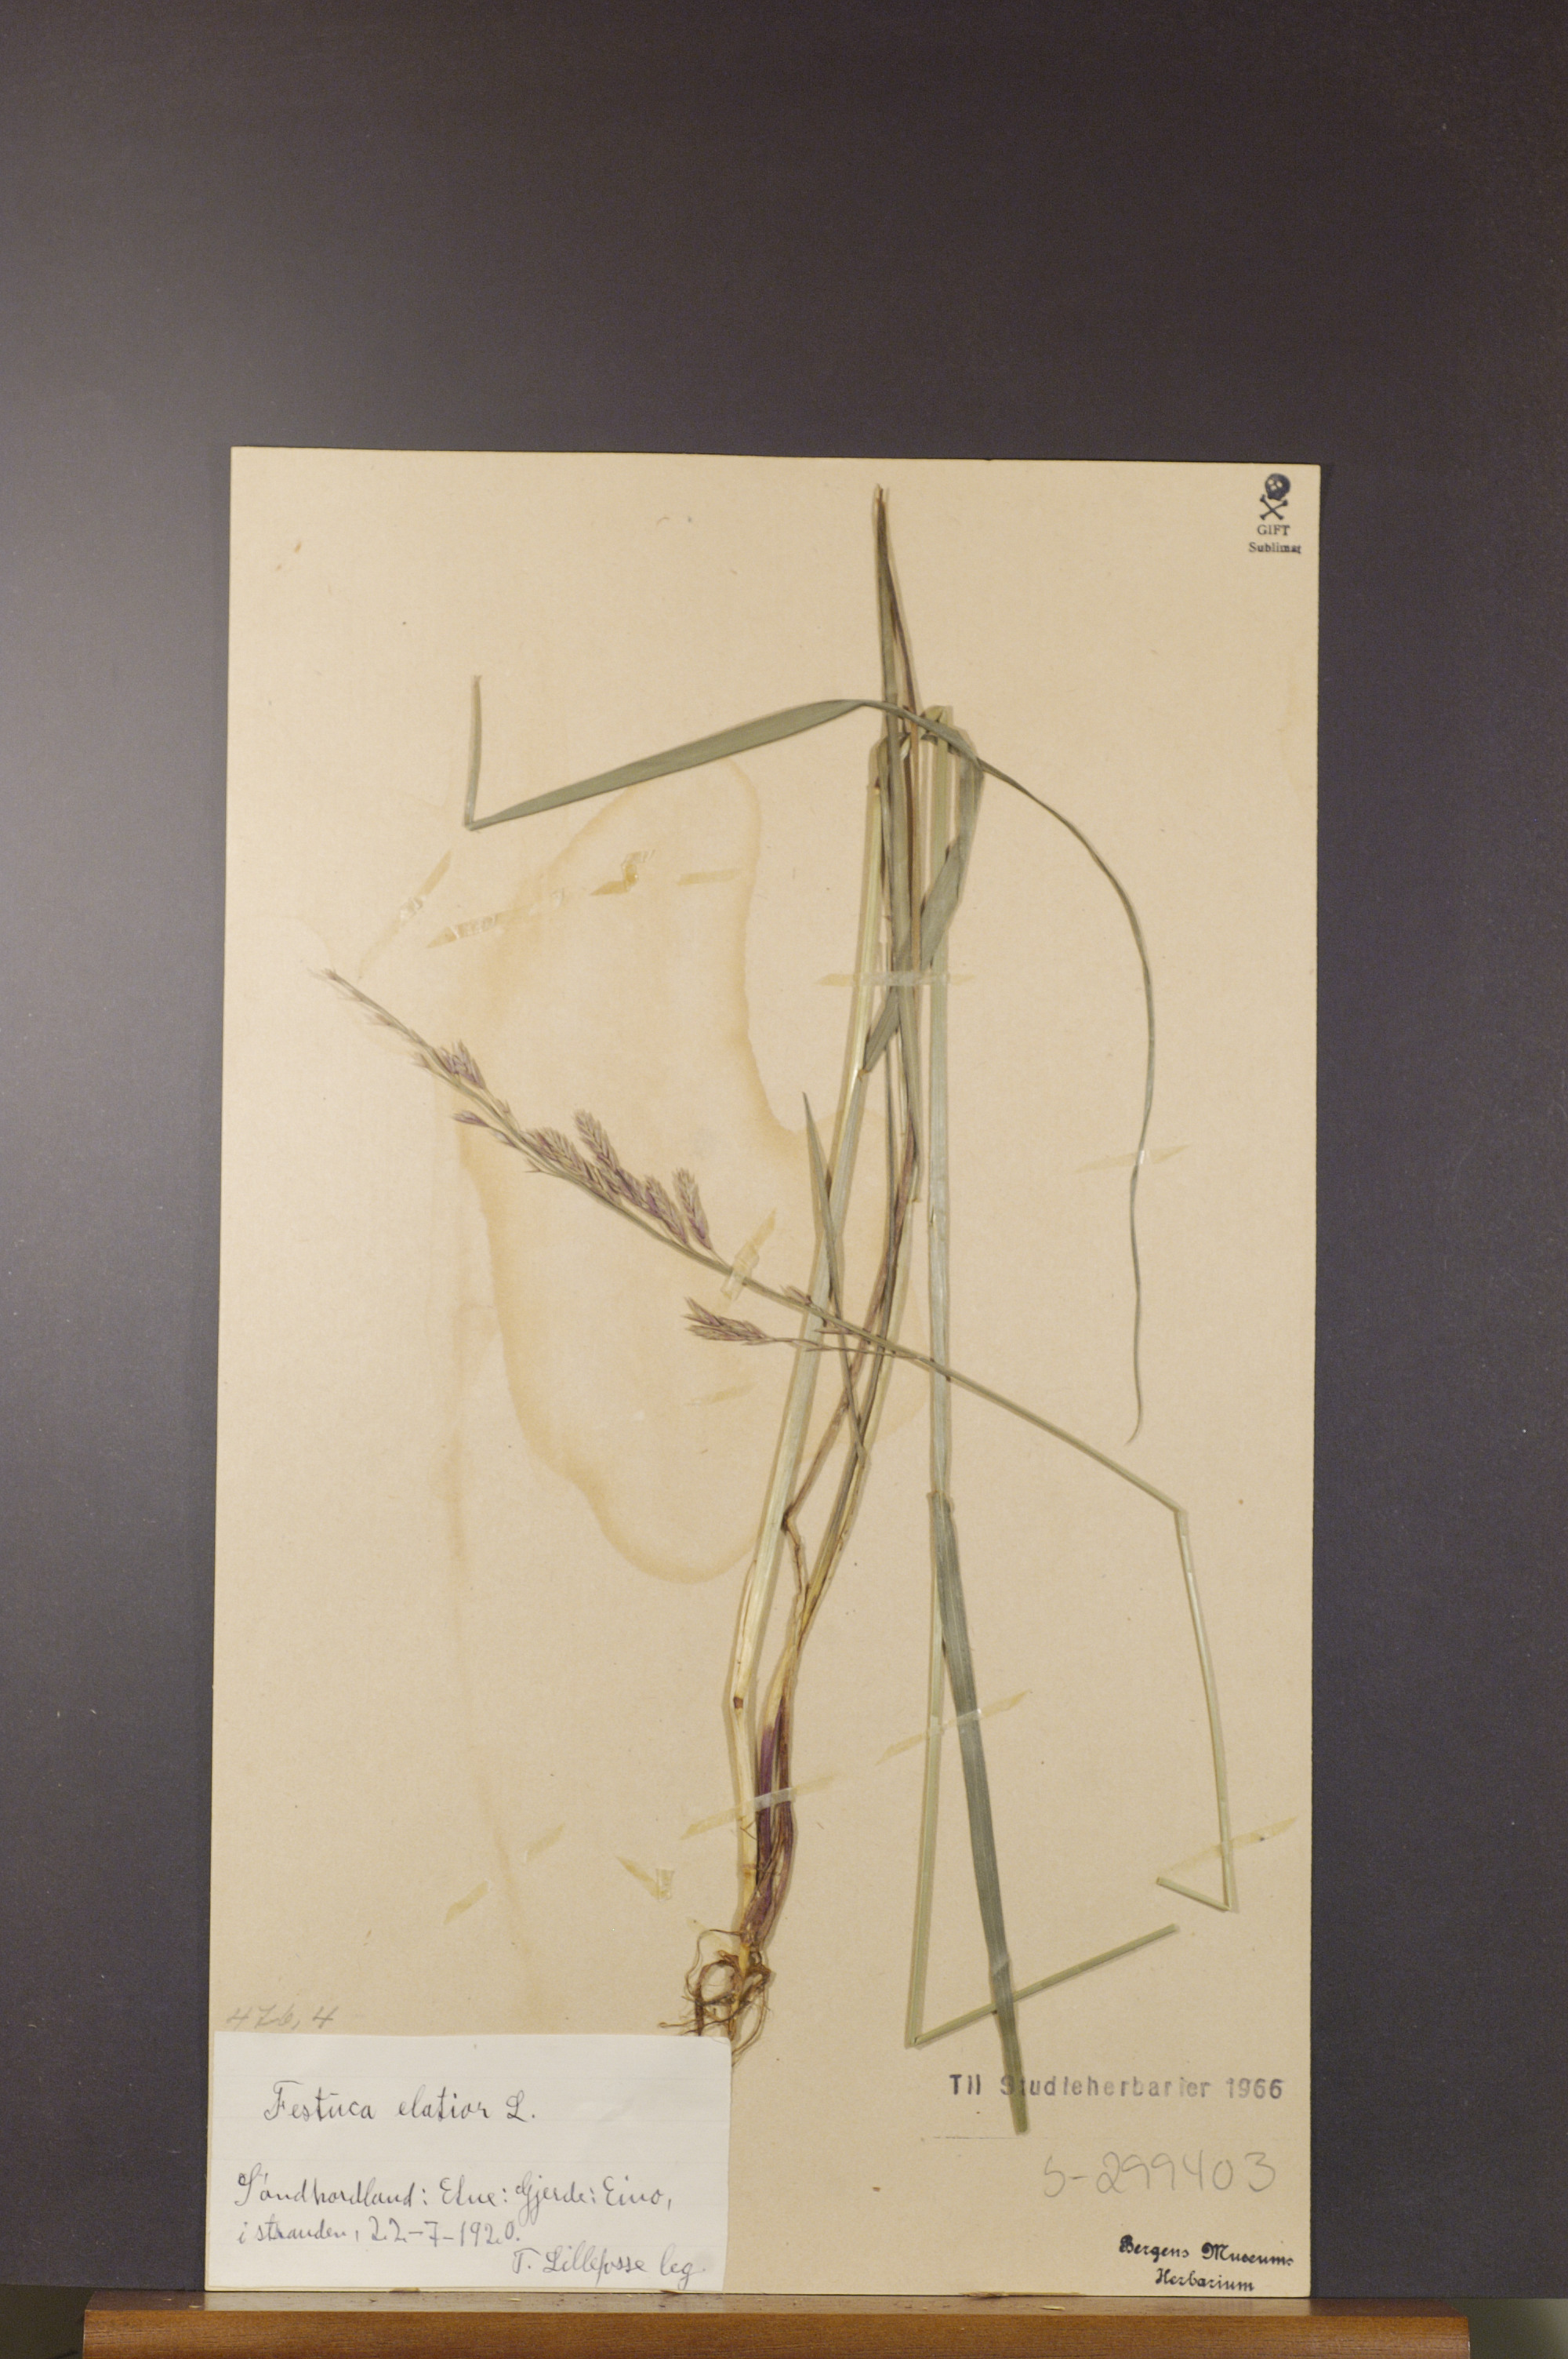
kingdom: Plantae
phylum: Tracheophyta
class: Liliopsida
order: Poales
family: Poaceae
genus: Lolium
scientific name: Lolium arundinaceum
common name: Reed fescue
